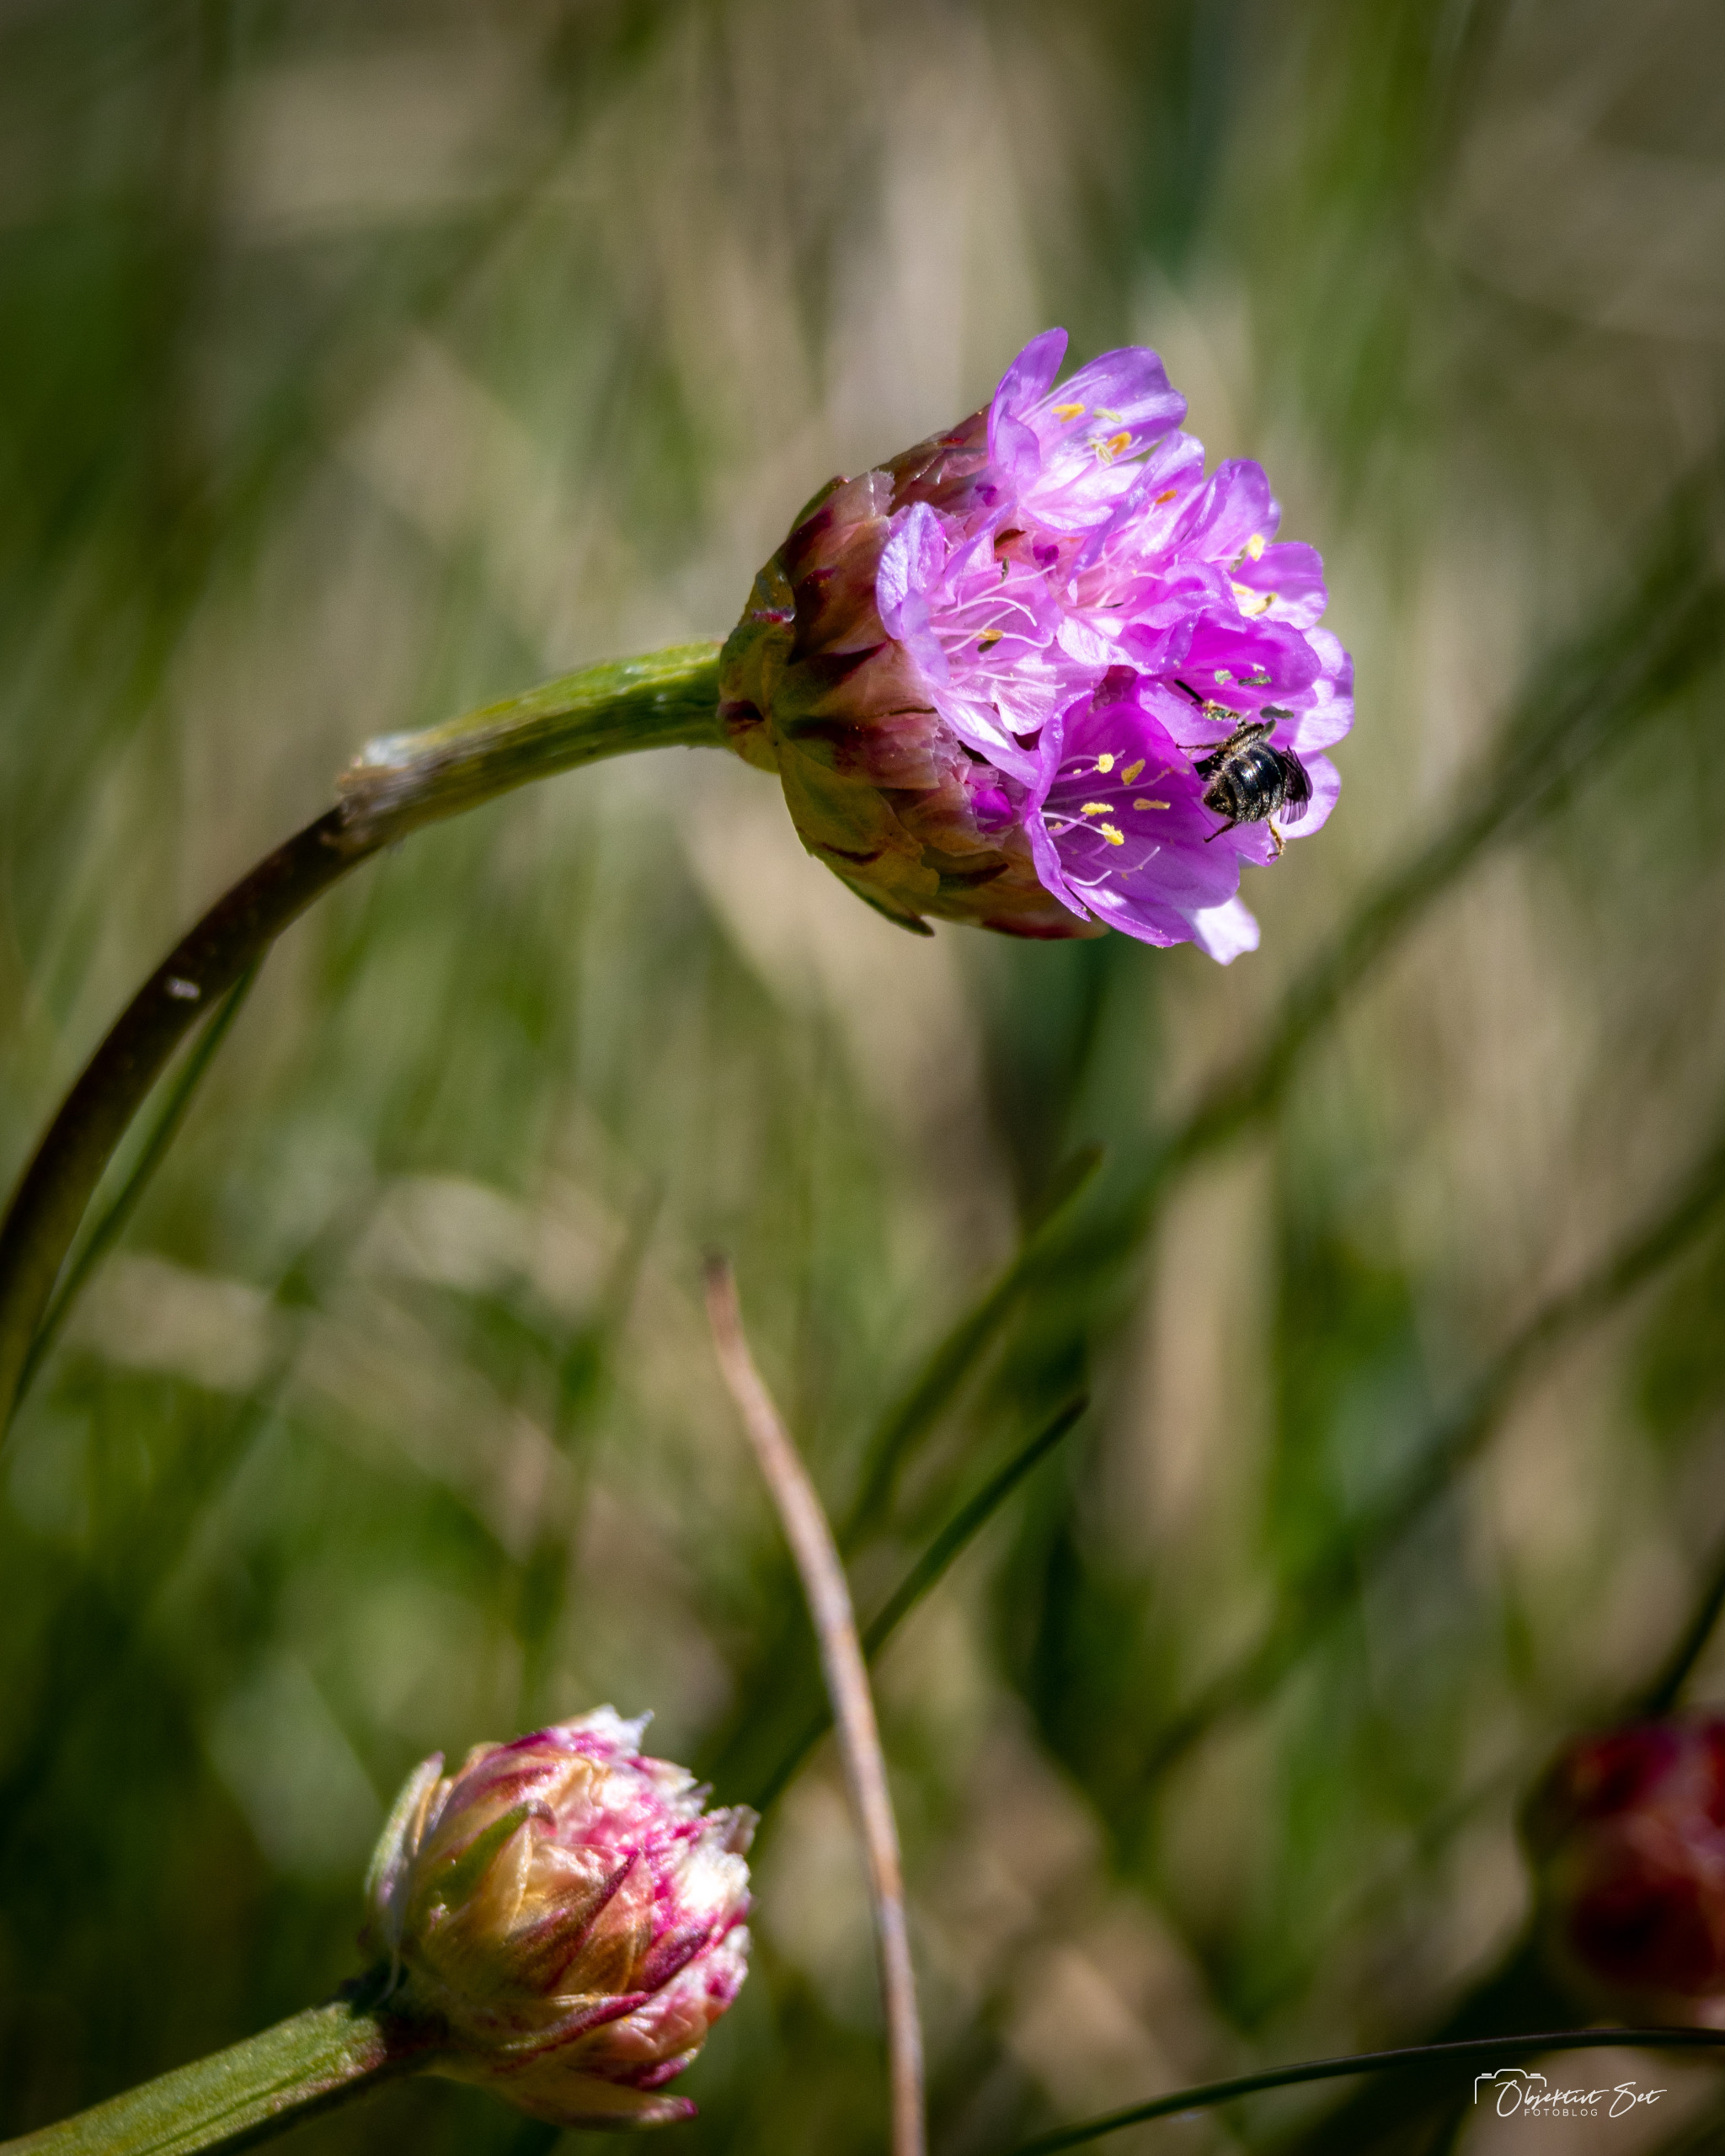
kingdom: Plantae
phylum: Tracheophyta
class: Magnoliopsida
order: Caryophyllales
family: Plumbaginaceae
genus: Armeria
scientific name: Armeria maritima
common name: Engelskgræs
